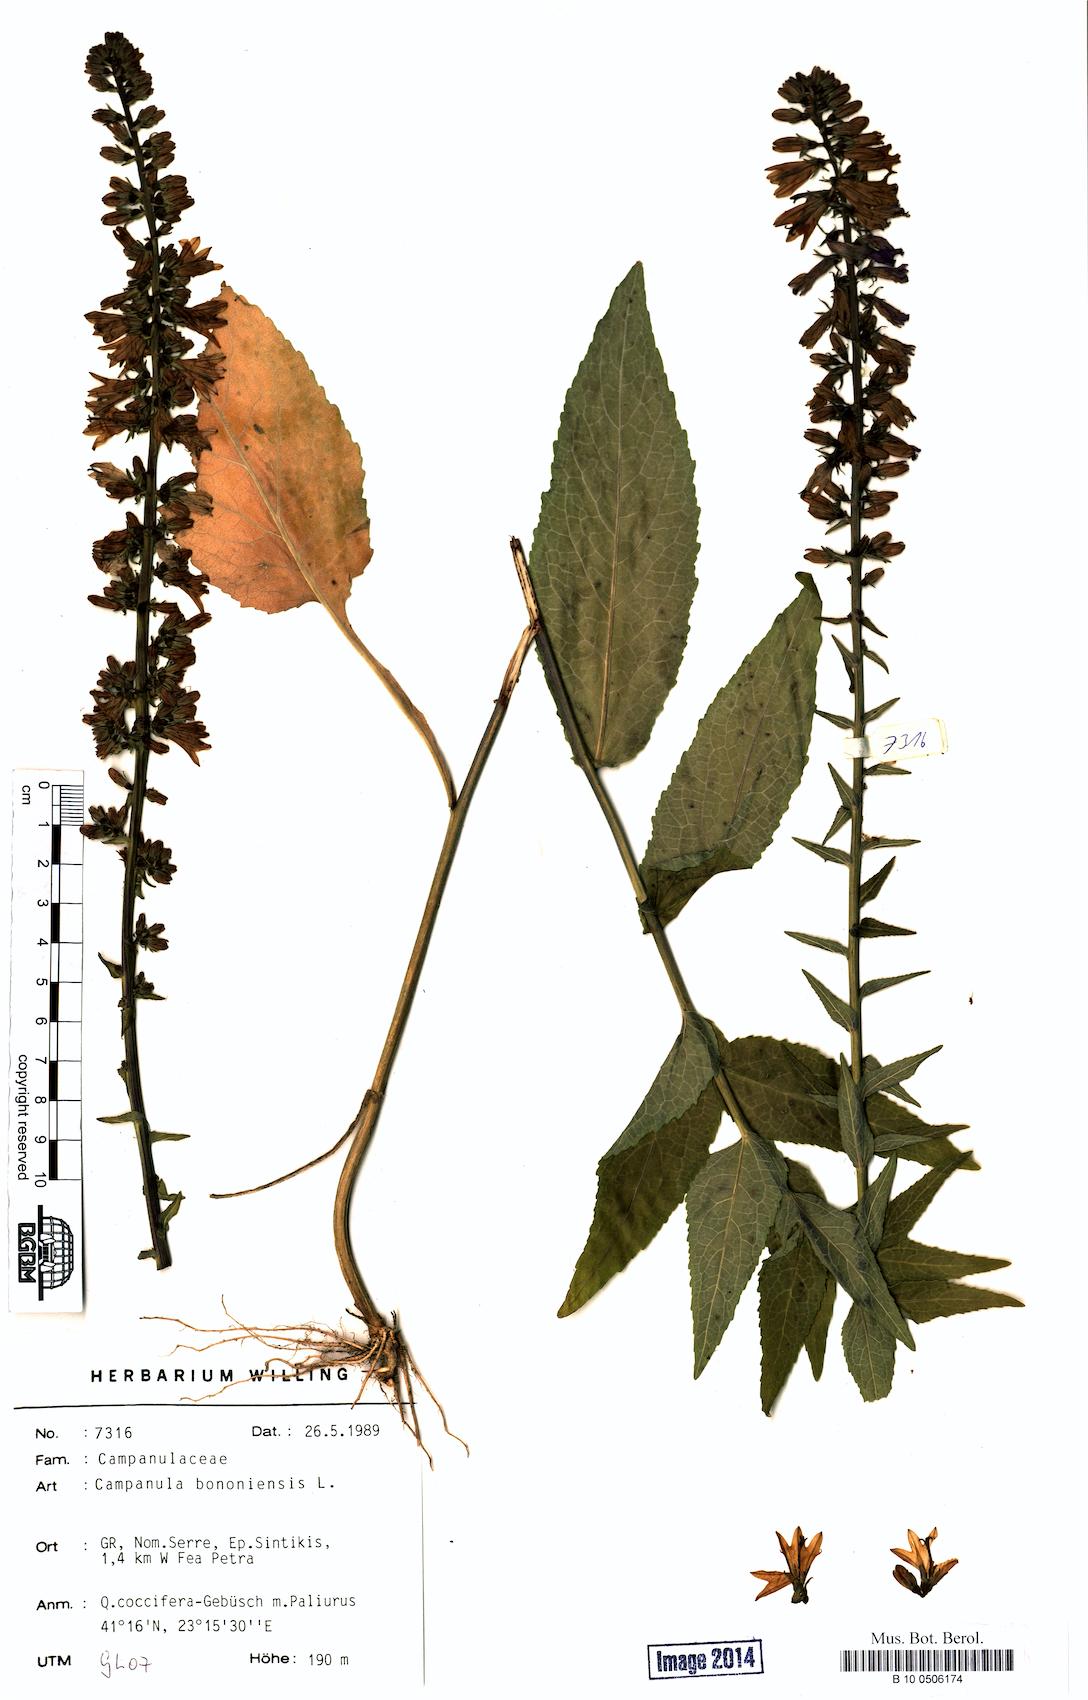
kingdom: Plantae
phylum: Tracheophyta
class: Magnoliopsida
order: Asterales
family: Campanulaceae
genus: Campanula
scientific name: Campanula bononiensis
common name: Pale bellflower
